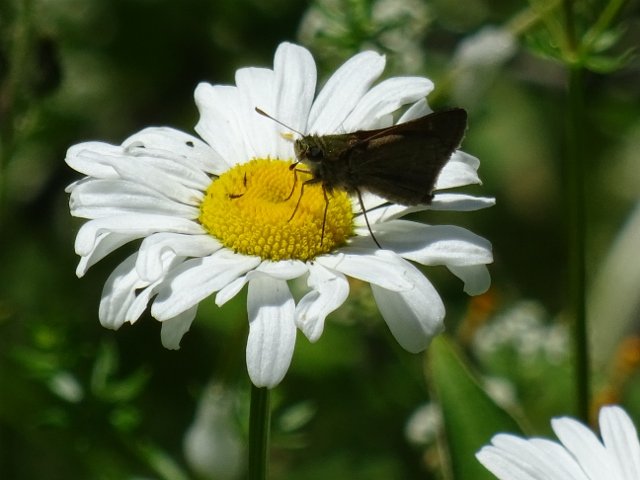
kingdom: Animalia
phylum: Arthropoda
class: Insecta
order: Lepidoptera
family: Hesperiidae
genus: Euphyes
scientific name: Euphyes vestris
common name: Dun Skipper
